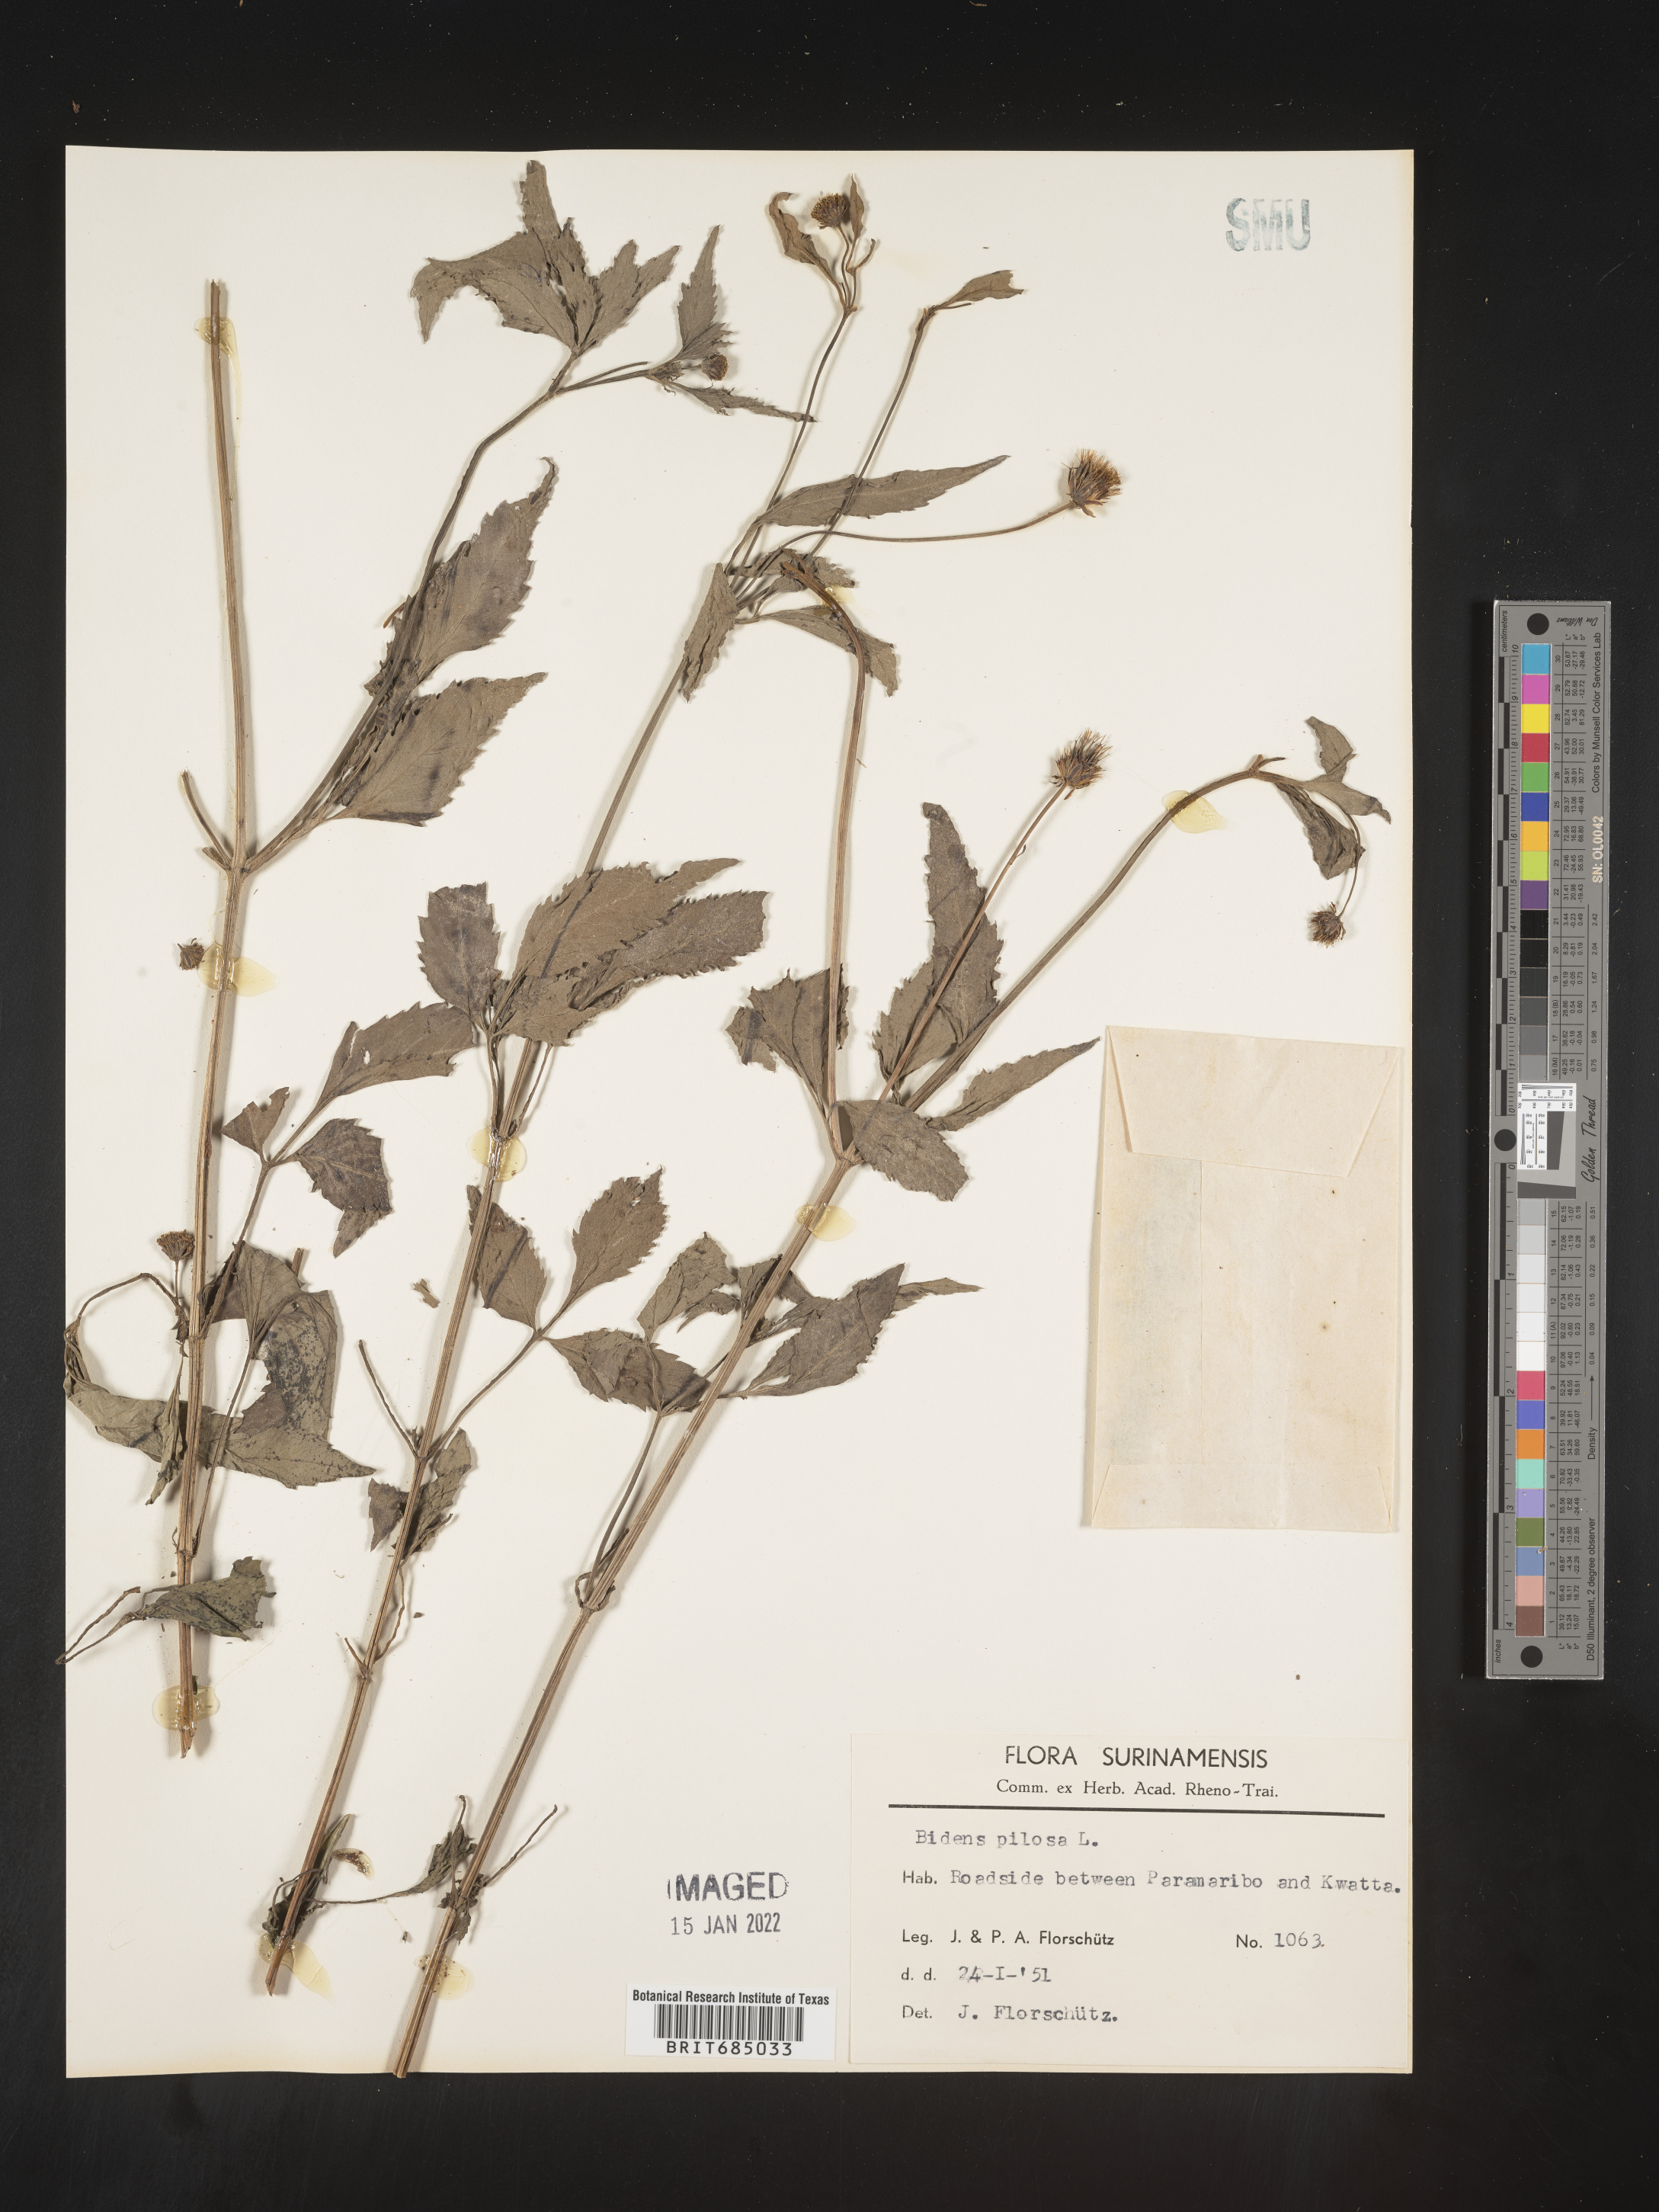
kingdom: Plantae
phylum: Tracheophyta
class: Magnoliopsida
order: Asterales
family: Asteraceae
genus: Bidens
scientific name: Bidens
